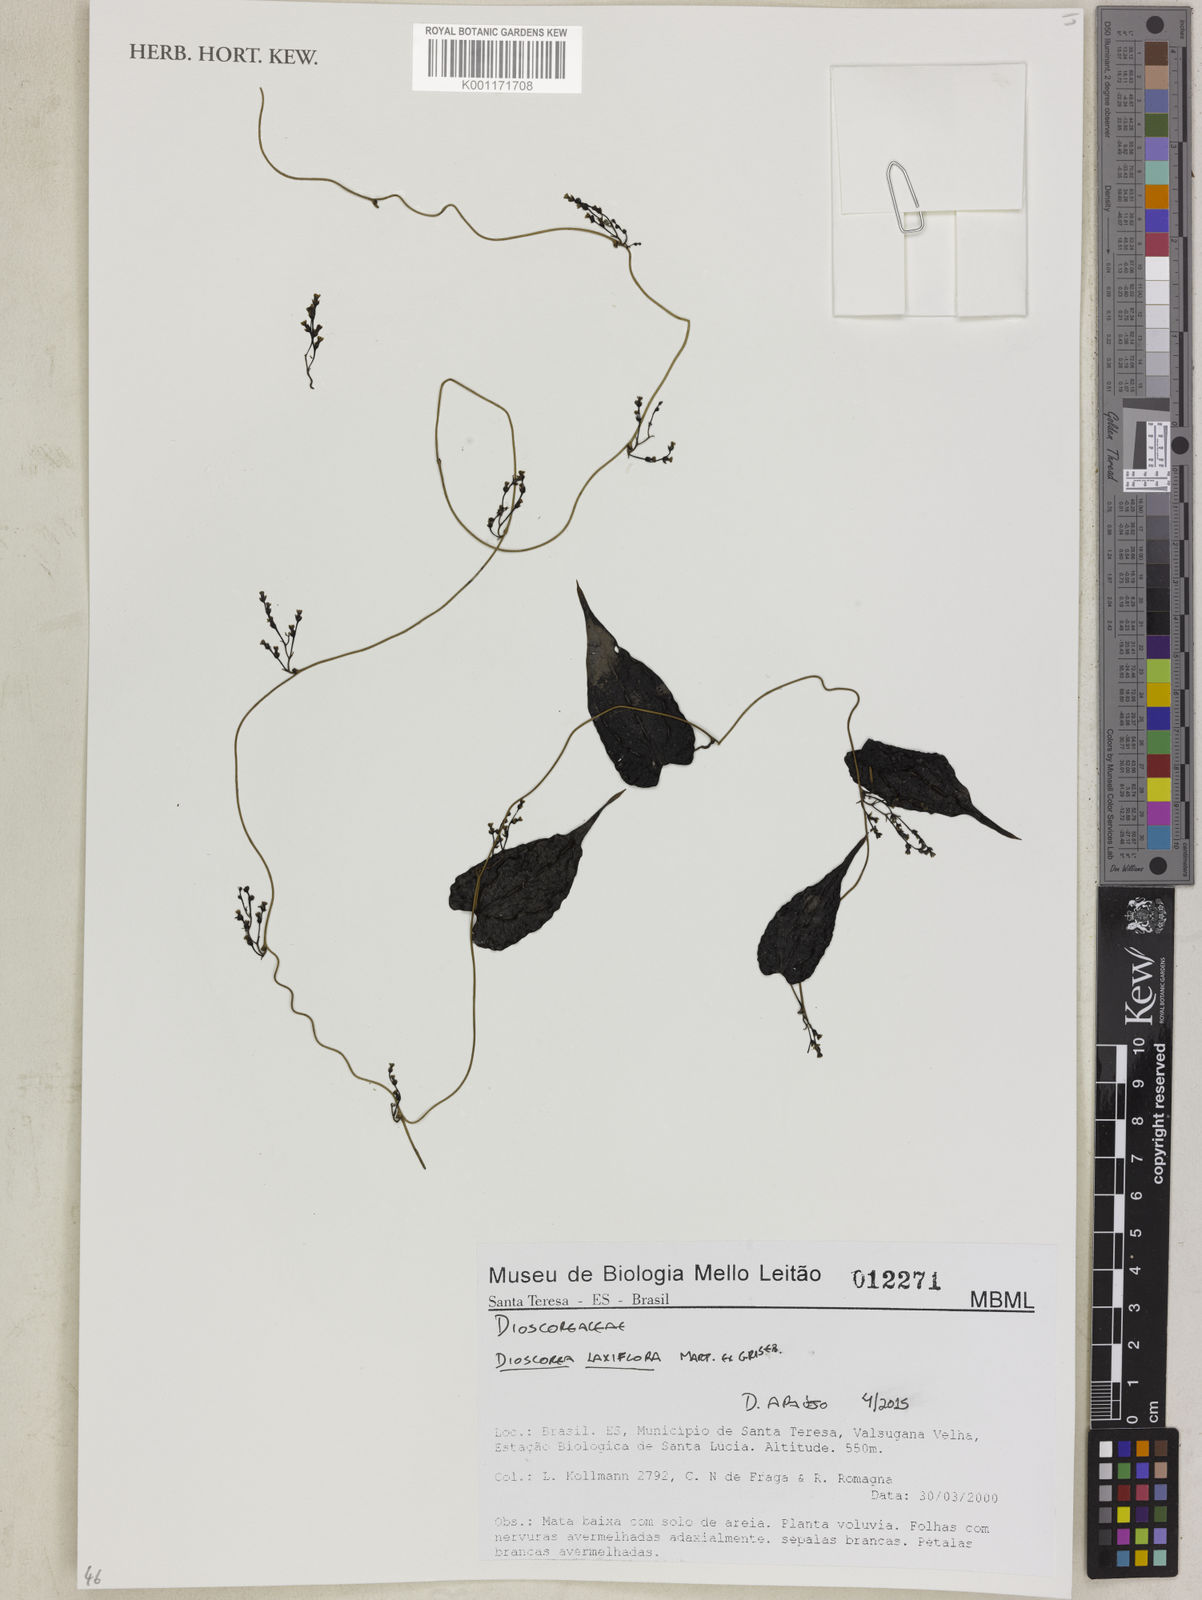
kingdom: Plantae
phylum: Tracheophyta
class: Liliopsida
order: Dioscoreales
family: Dioscoreaceae
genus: Dioscorea
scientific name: Dioscorea laxiflora
